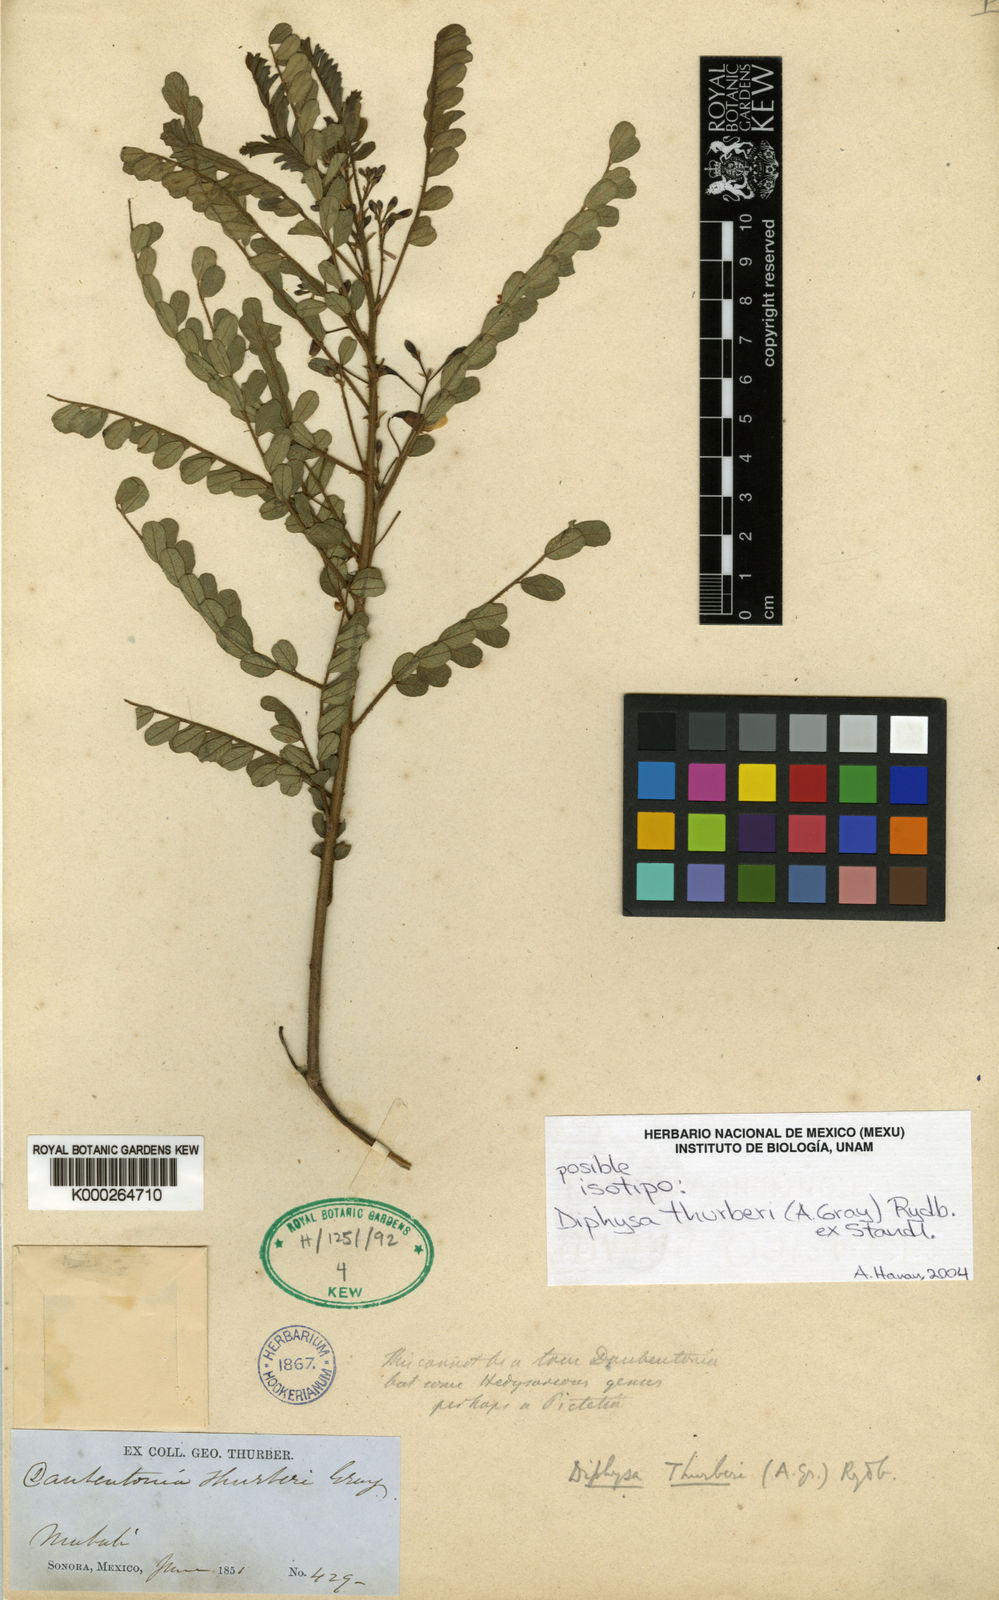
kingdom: Plantae
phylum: Tracheophyta
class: Magnoliopsida
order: Fabales
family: Fabaceae
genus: Diphysa
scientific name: Diphysa
